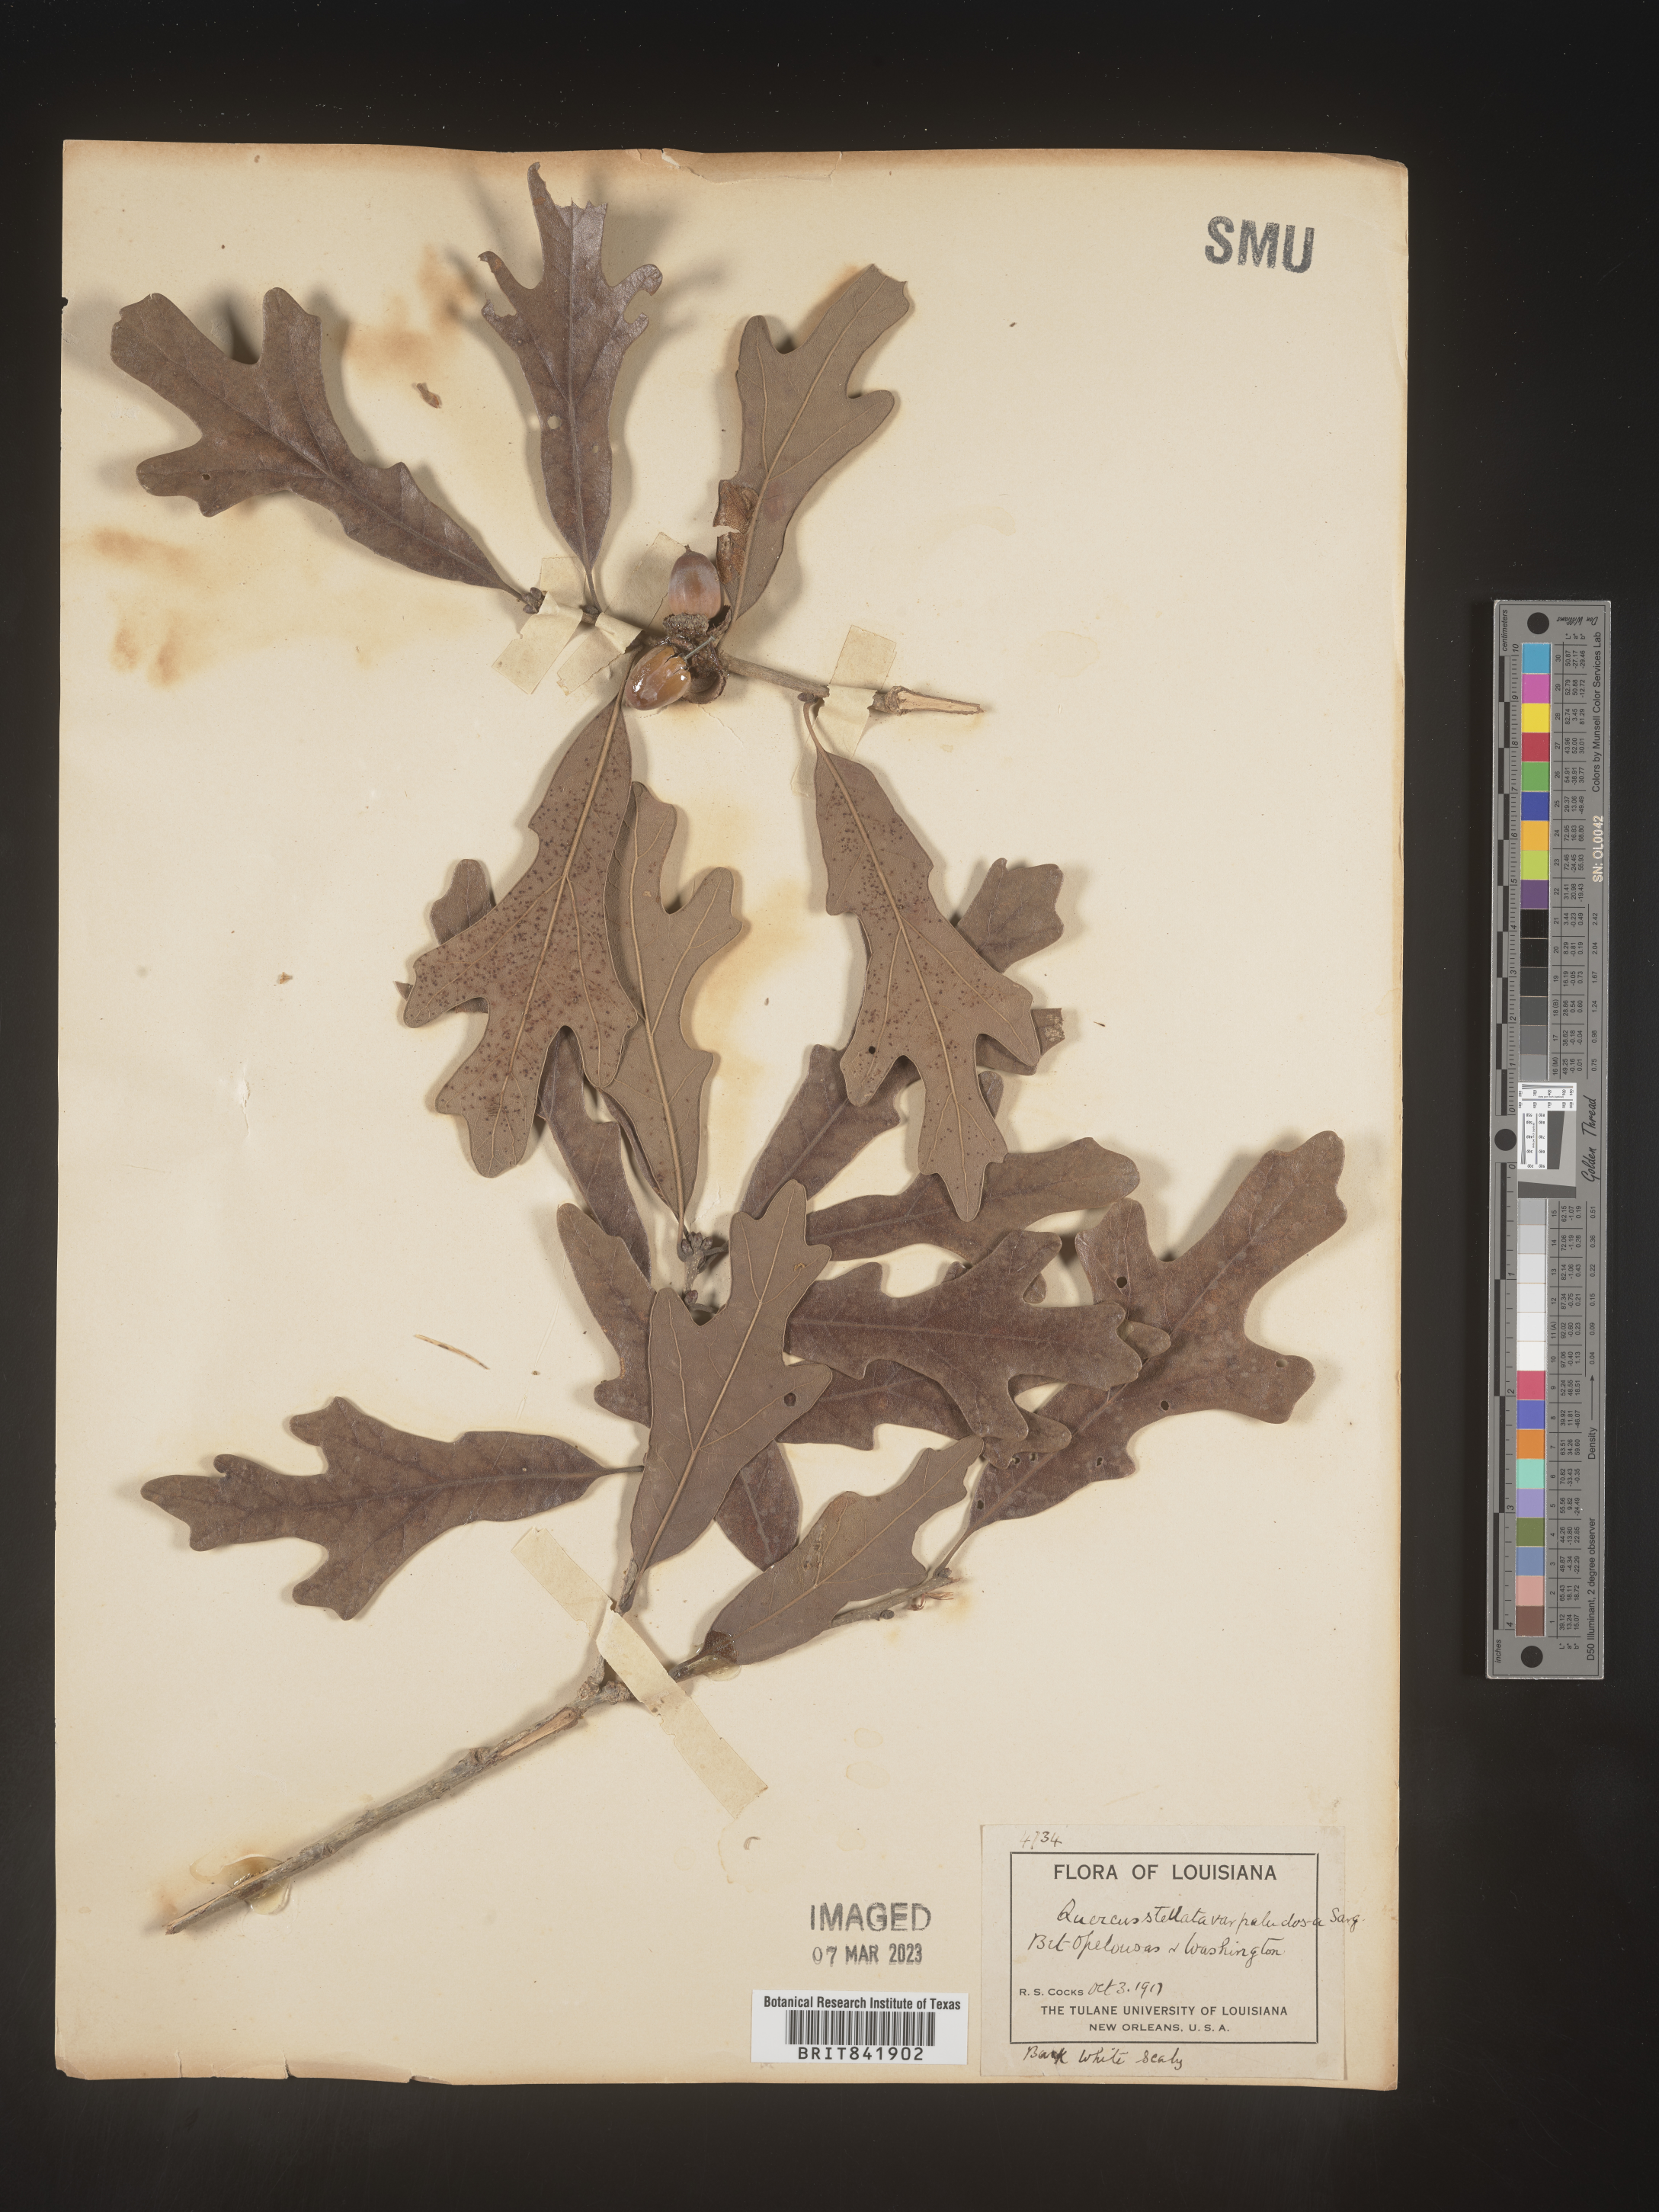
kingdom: Plantae
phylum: Tracheophyta
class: Magnoliopsida
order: Fagales
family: Fagaceae
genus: Quercus
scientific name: Quercus stellata
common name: Post oak
